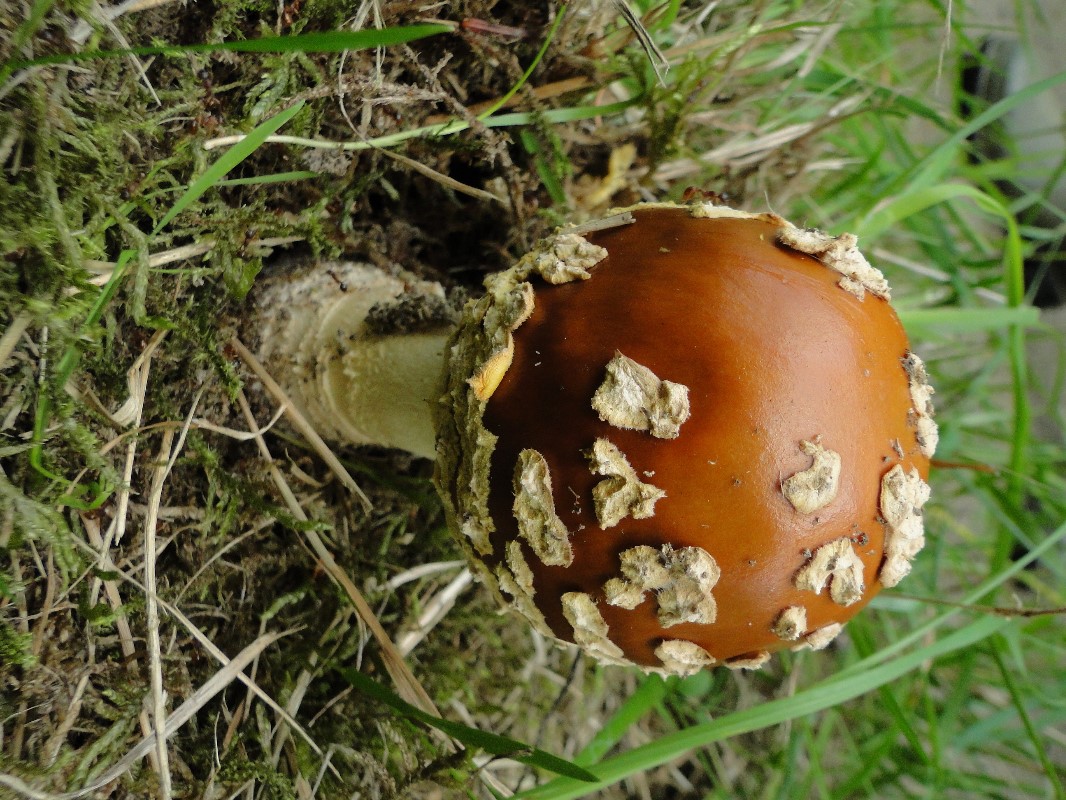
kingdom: Fungi
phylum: Basidiomycota
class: Agaricomycetes
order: Agaricales
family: Amanitaceae
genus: Amanita
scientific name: Amanita regalis
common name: brun fluesvamp
